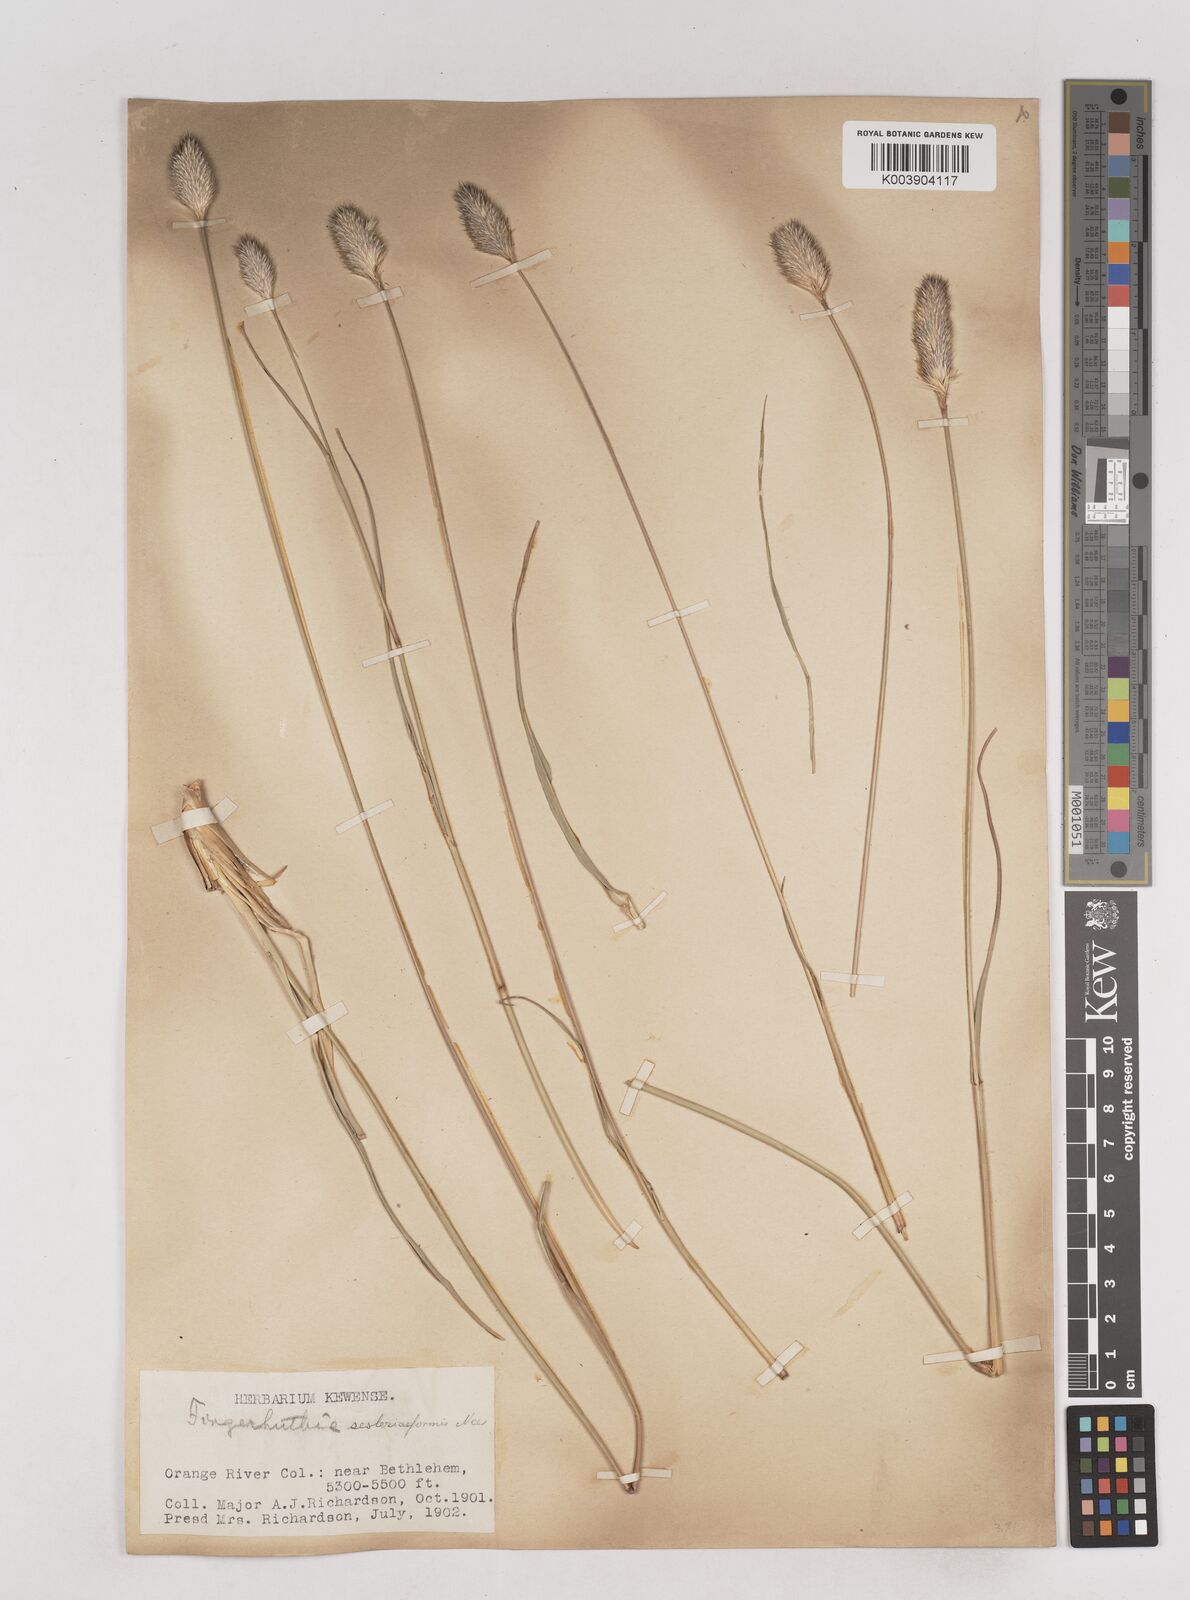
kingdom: Plantae
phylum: Tracheophyta
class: Liliopsida
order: Poales
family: Poaceae
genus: Fingerhuthia
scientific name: Fingerhuthia sesleriiformis
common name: Thimble grass
